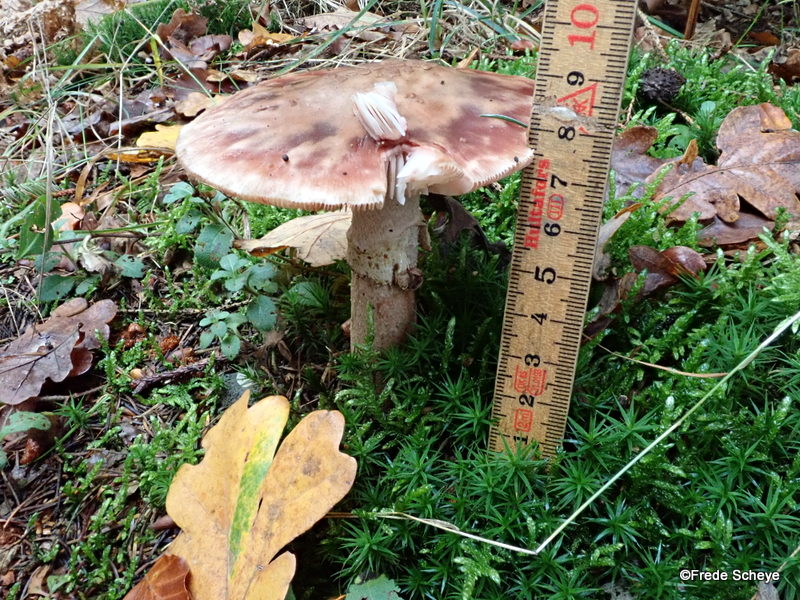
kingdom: Fungi
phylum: Basidiomycota
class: Agaricomycetes
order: Agaricales
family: Amanitaceae
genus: Amanita
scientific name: Amanita rubescens
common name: rødmende fluesvamp
